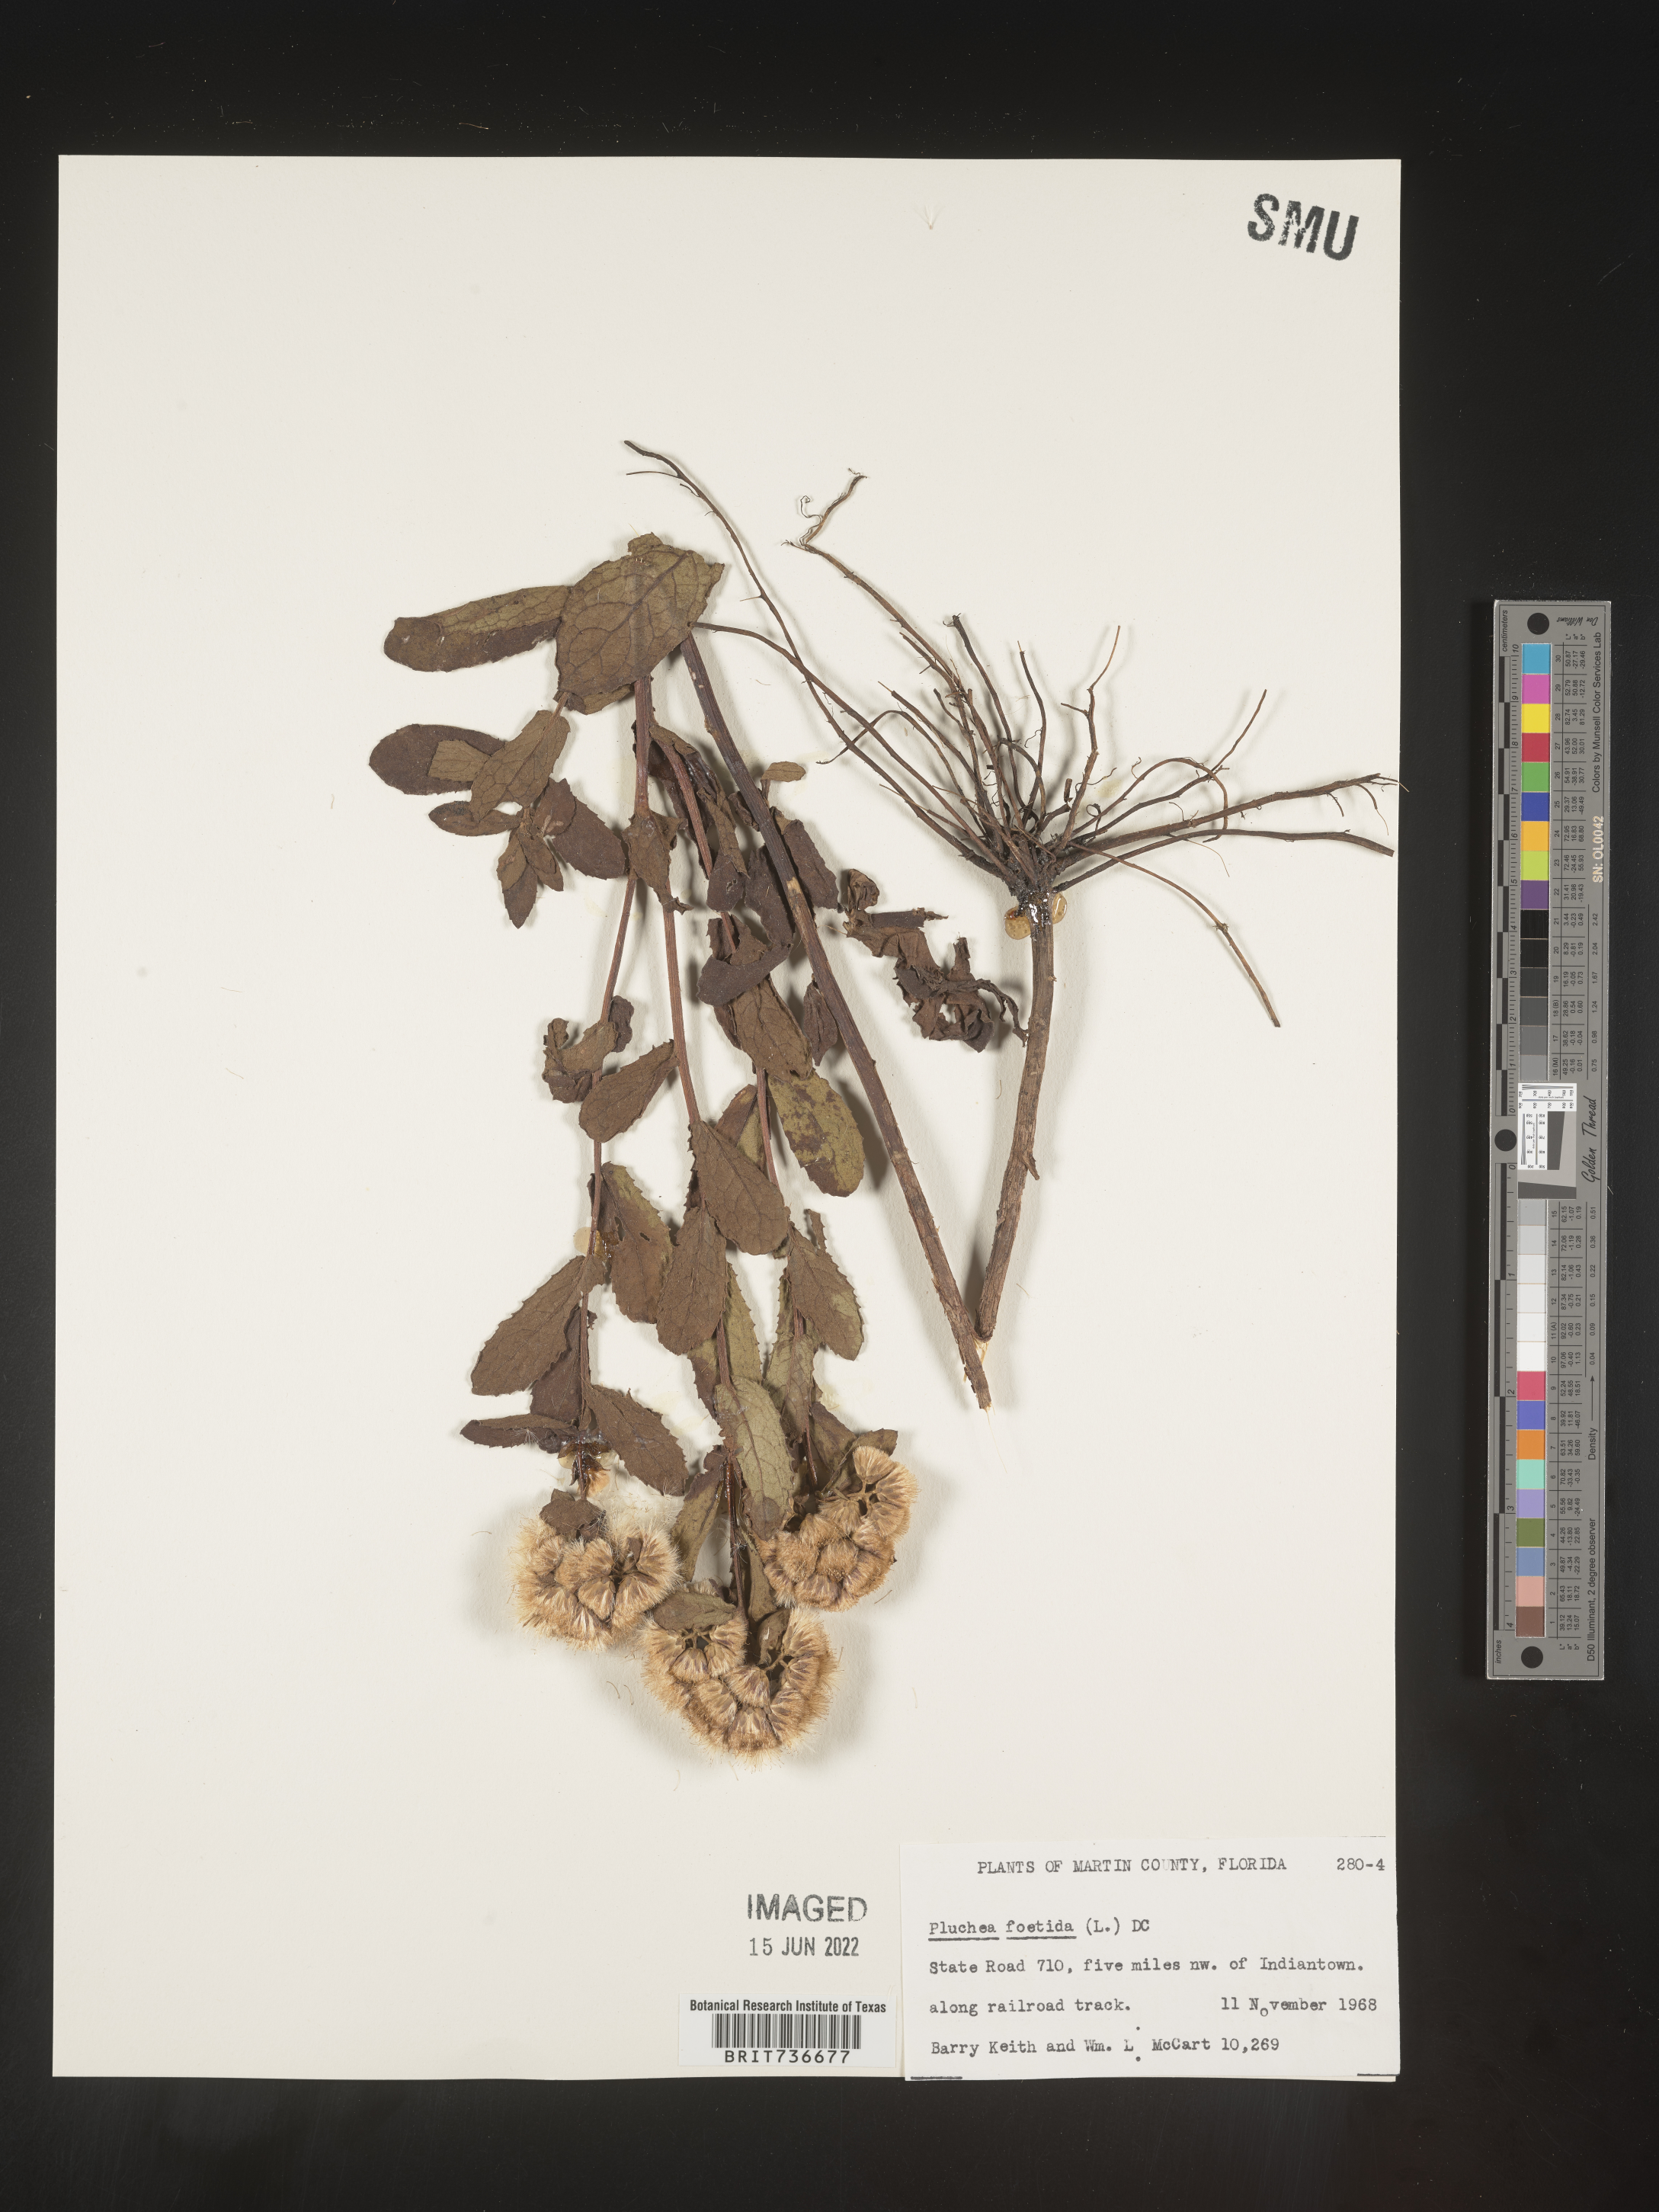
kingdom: Plantae
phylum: Tracheophyta
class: Magnoliopsida
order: Asterales
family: Asteraceae
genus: Pluchea
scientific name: Pluchea foetida
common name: Stinking camphorweed
